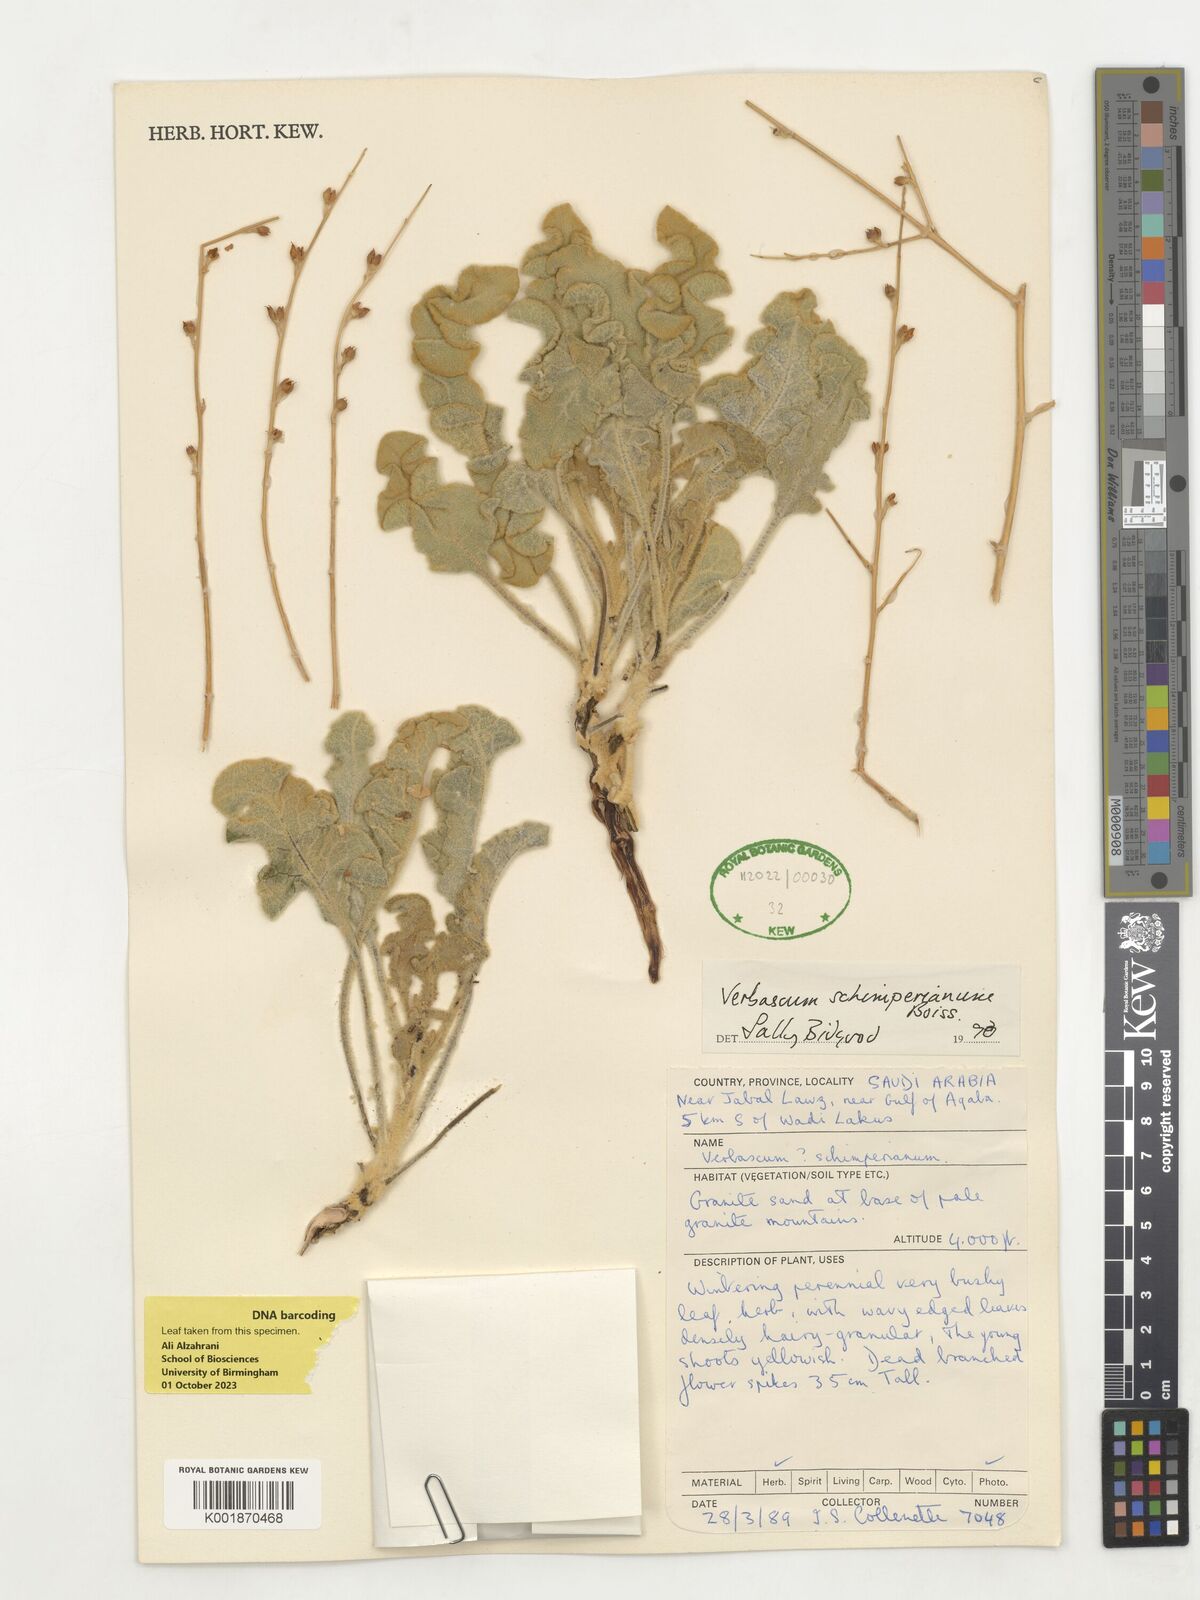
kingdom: Plantae
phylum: Tracheophyta
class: Magnoliopsida
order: Lamiales
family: Scrophulariaceae
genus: Verbascum
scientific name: Verbascum schimperianum
